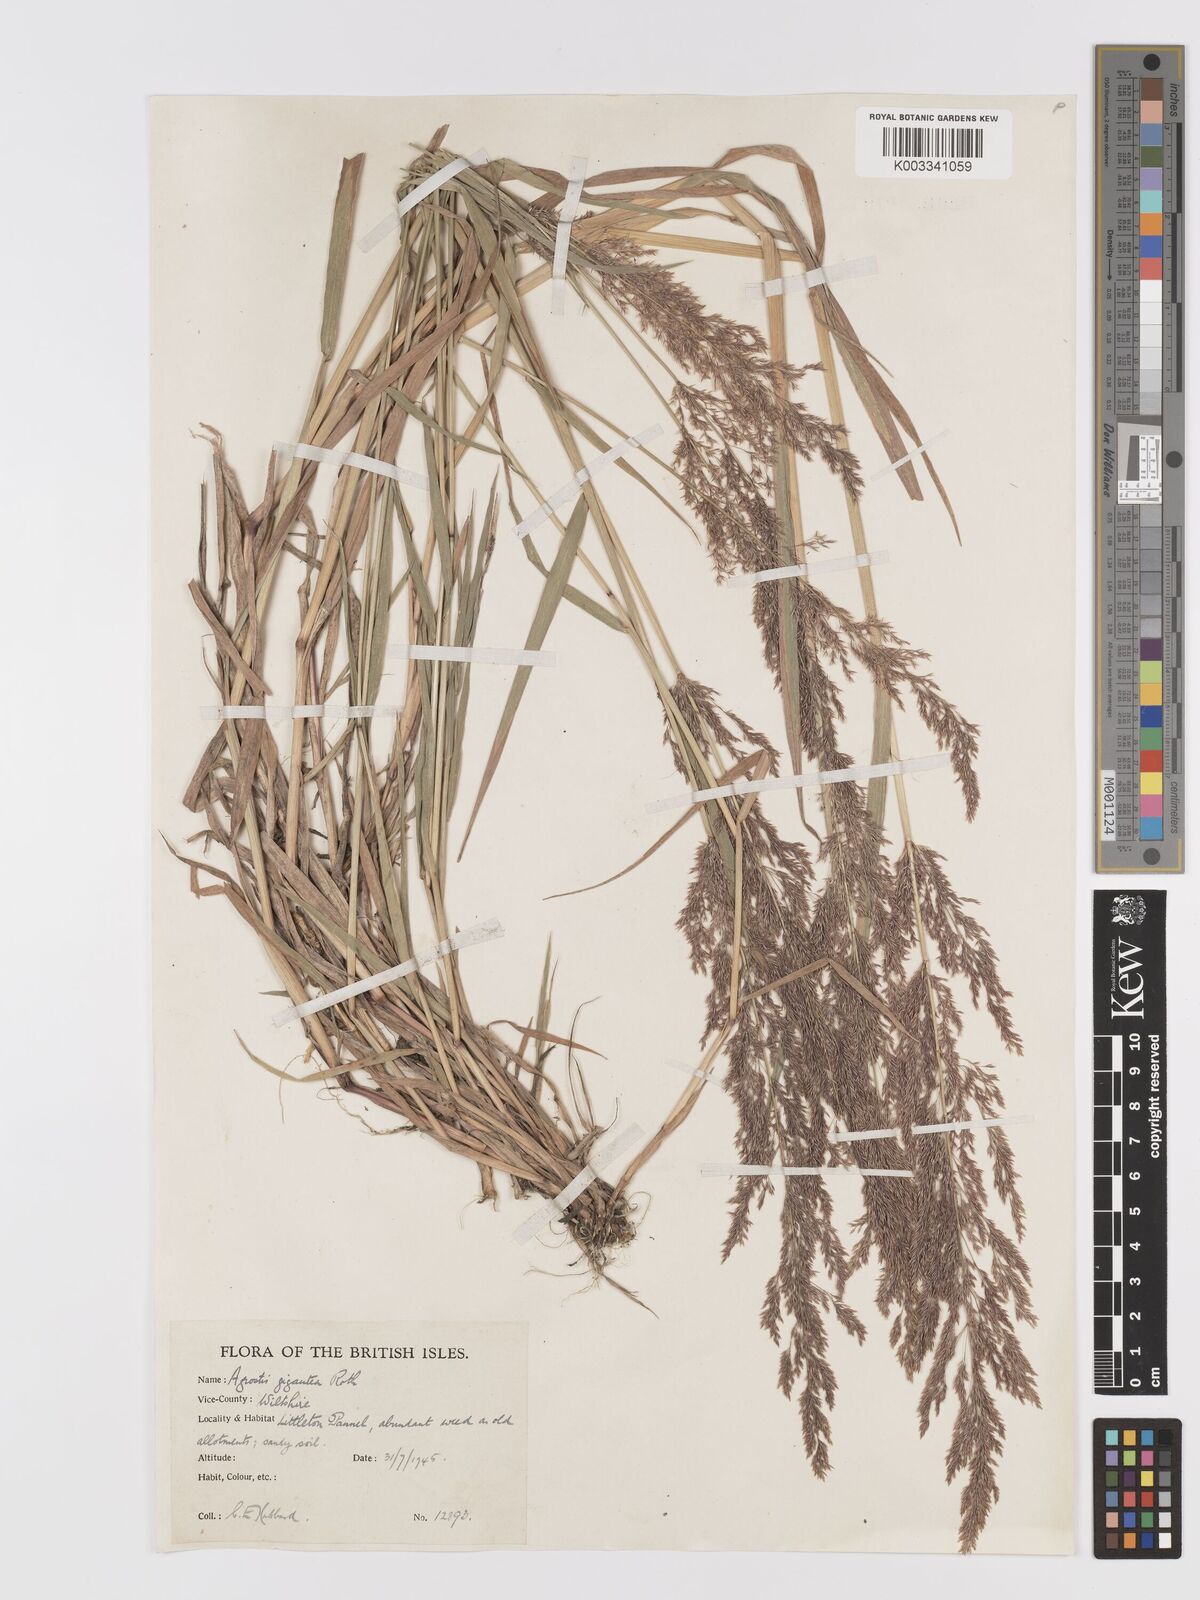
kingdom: Plantae
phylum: Tracheophyta
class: Liliopsida
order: Poales
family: Poaceae
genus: Agrostis
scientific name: Agrostis gigantea
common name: Black bent
